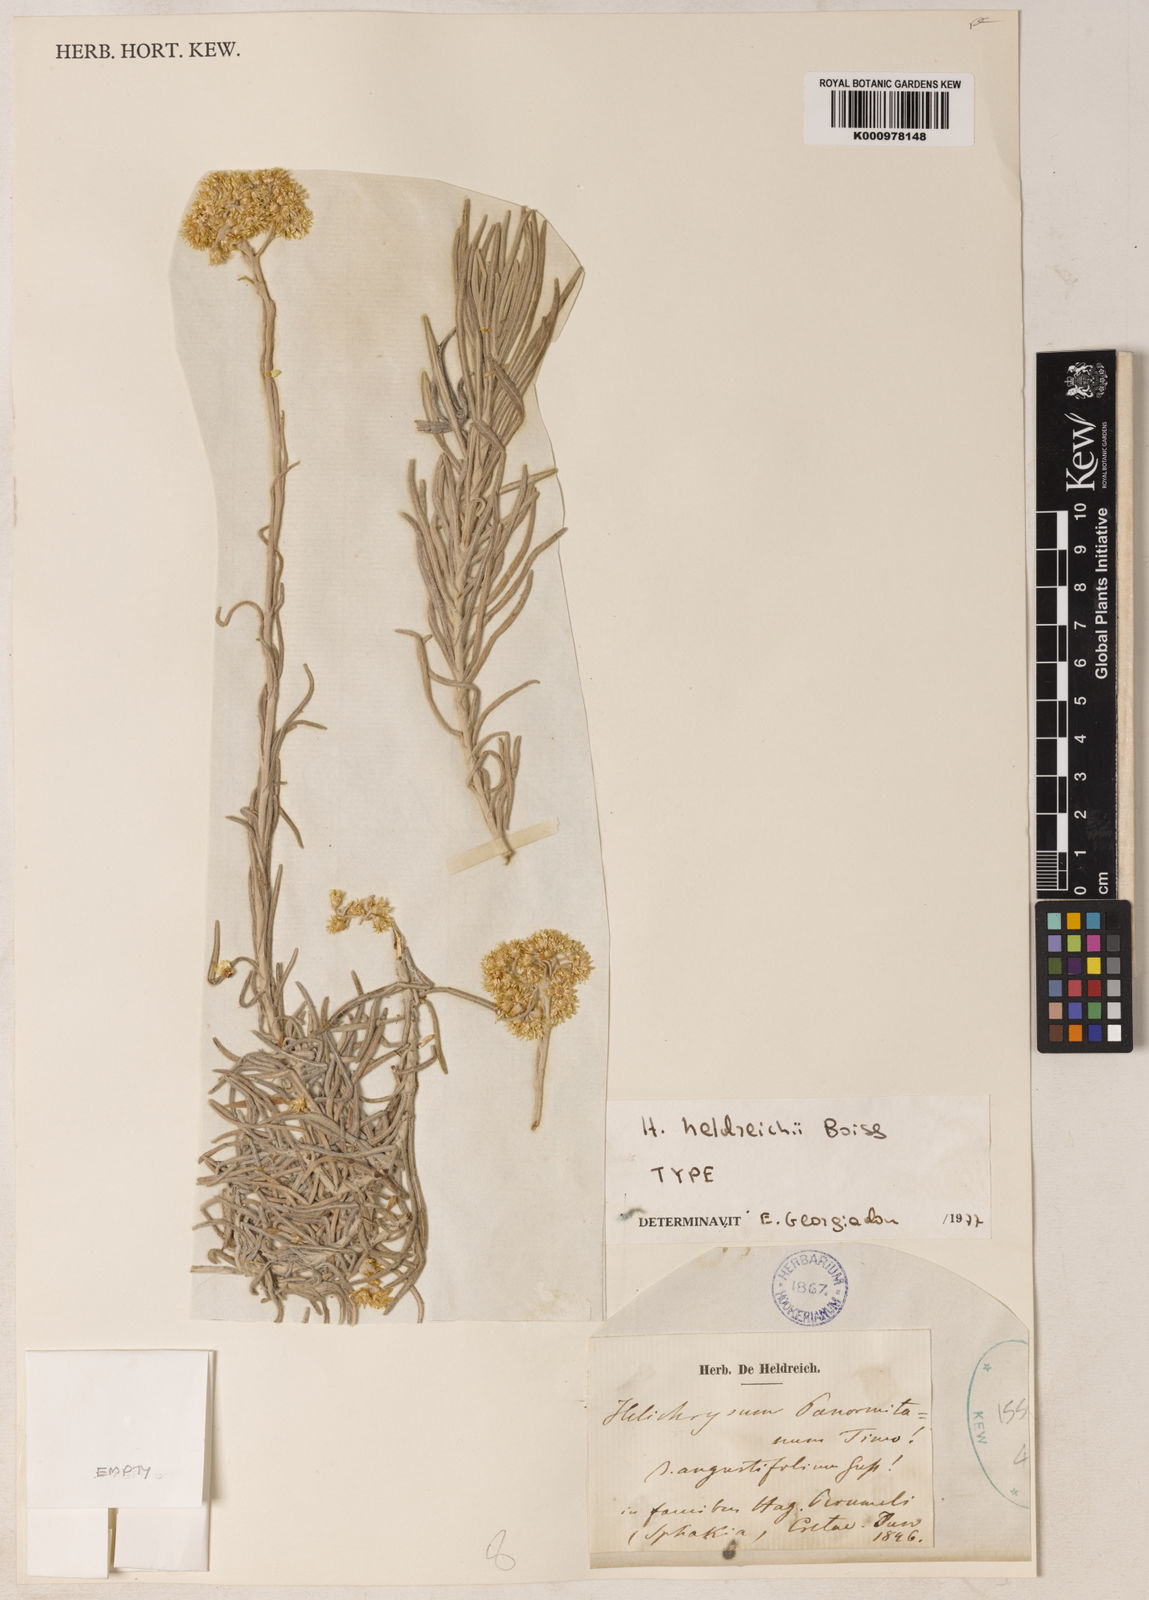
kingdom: Plantae
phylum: Tracheophyta
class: Magnoliopsida
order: Asterales
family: Asteraceae
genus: Helichrysum
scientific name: Helichrysum heldreichii
